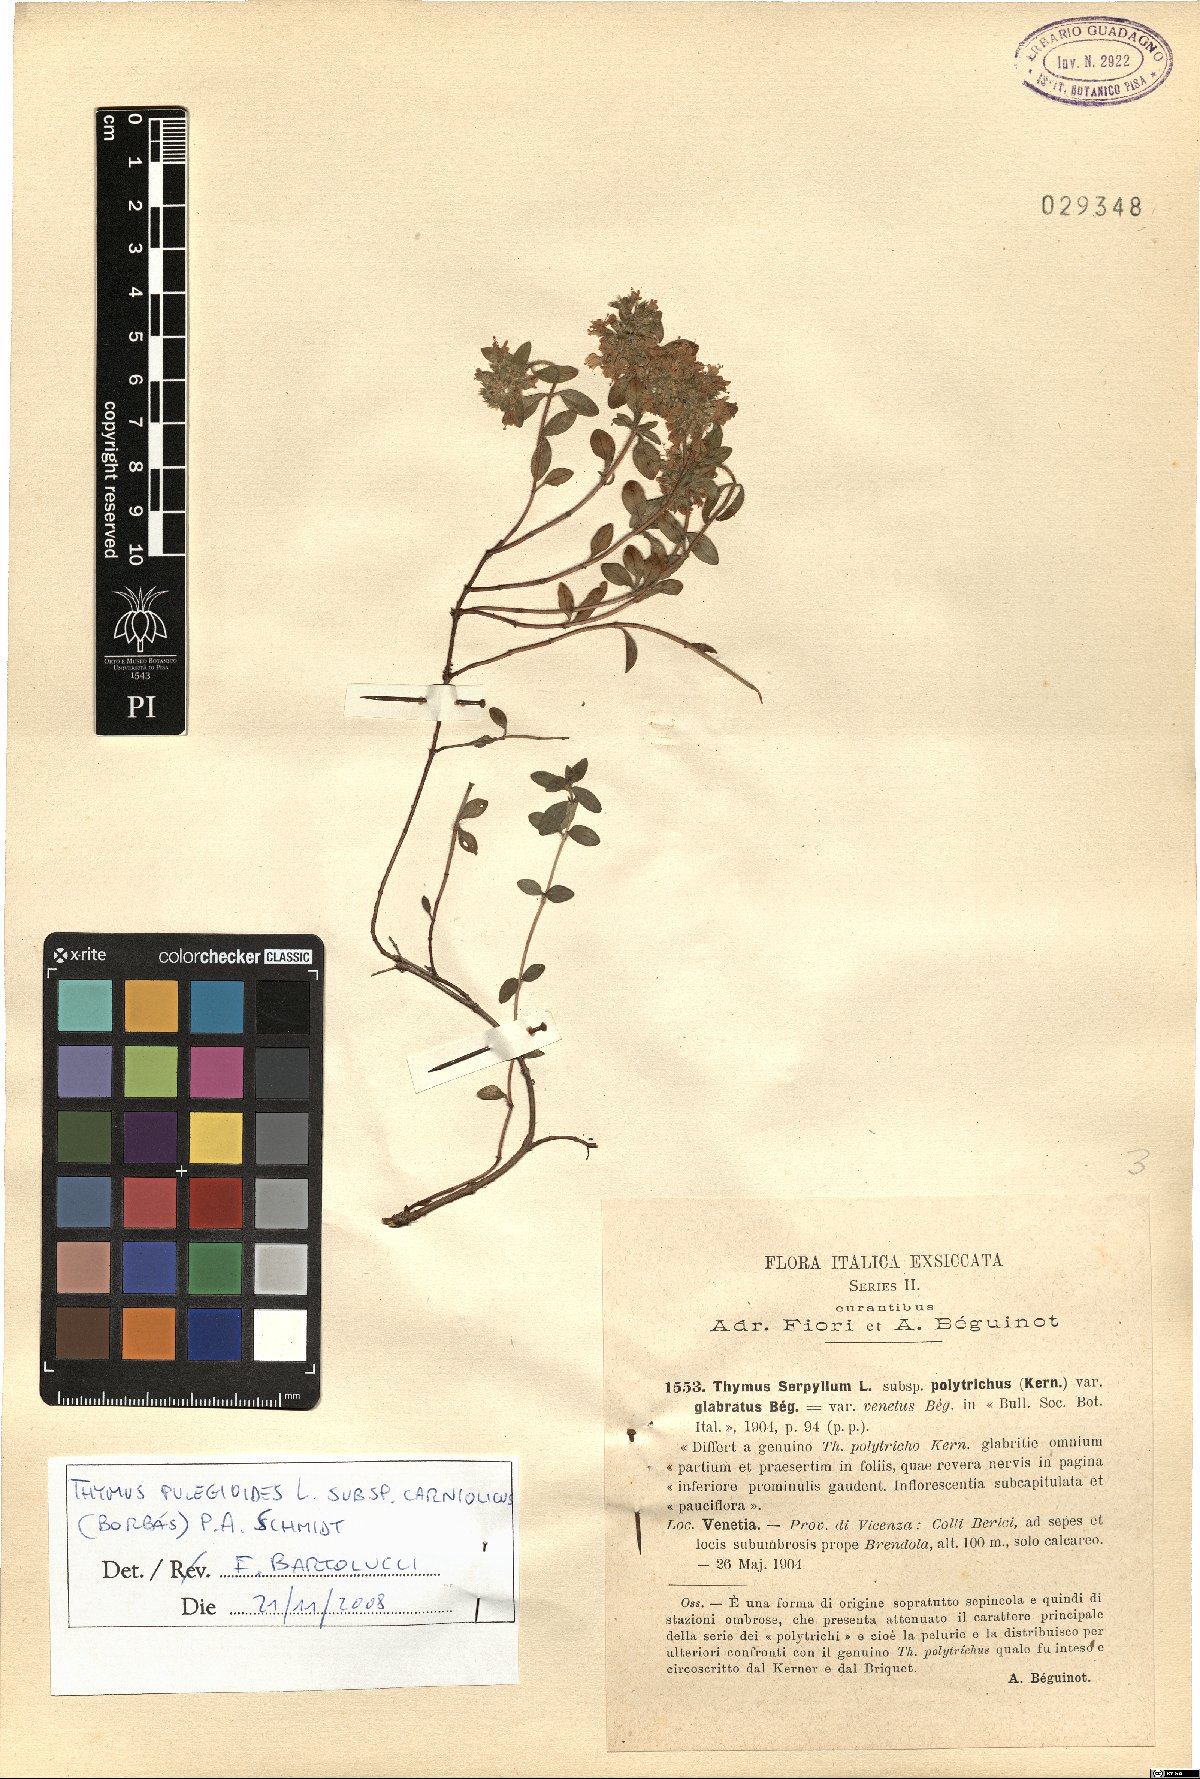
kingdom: Plantae
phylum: Tracheophyta
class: Magnoliopsida
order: Lamiales
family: Lamiaceae
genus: Thymus
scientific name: Thymus pannonicus
